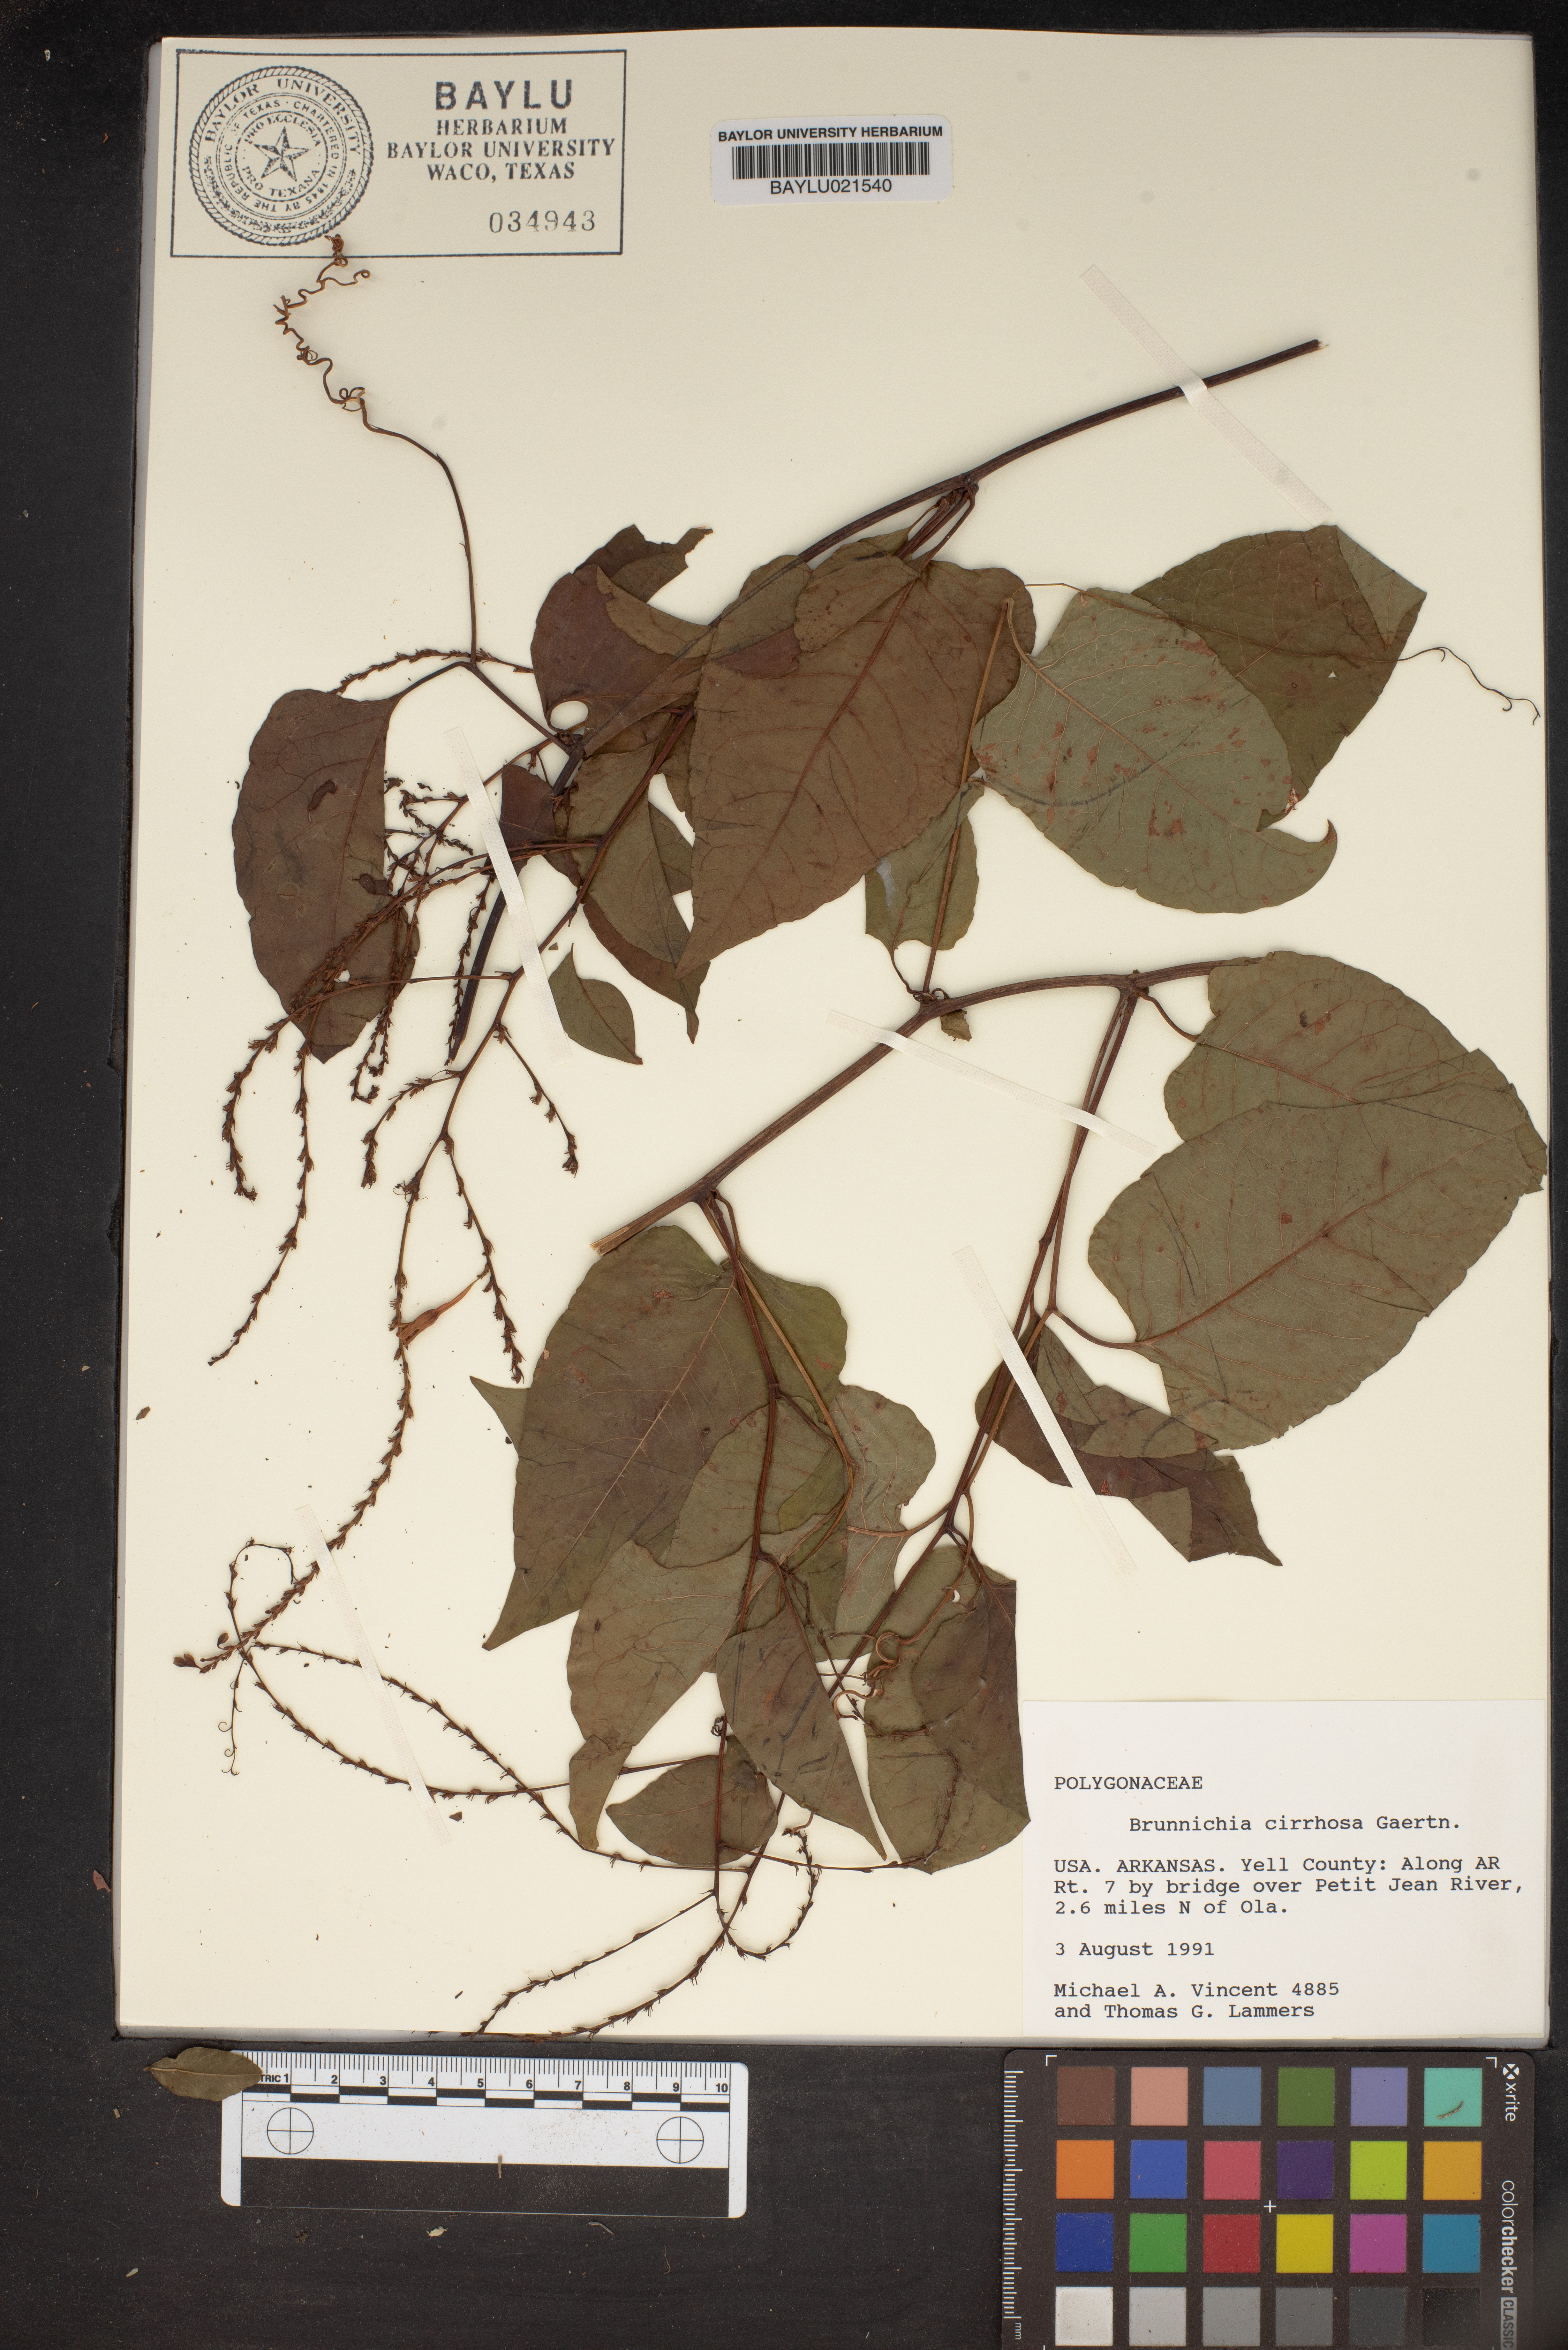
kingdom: Plantae
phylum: Tracheophyta
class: Magnoliopsida
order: Caryophyllales
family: Polygonaceae
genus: Brunnichia
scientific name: Brunnichia ovata
